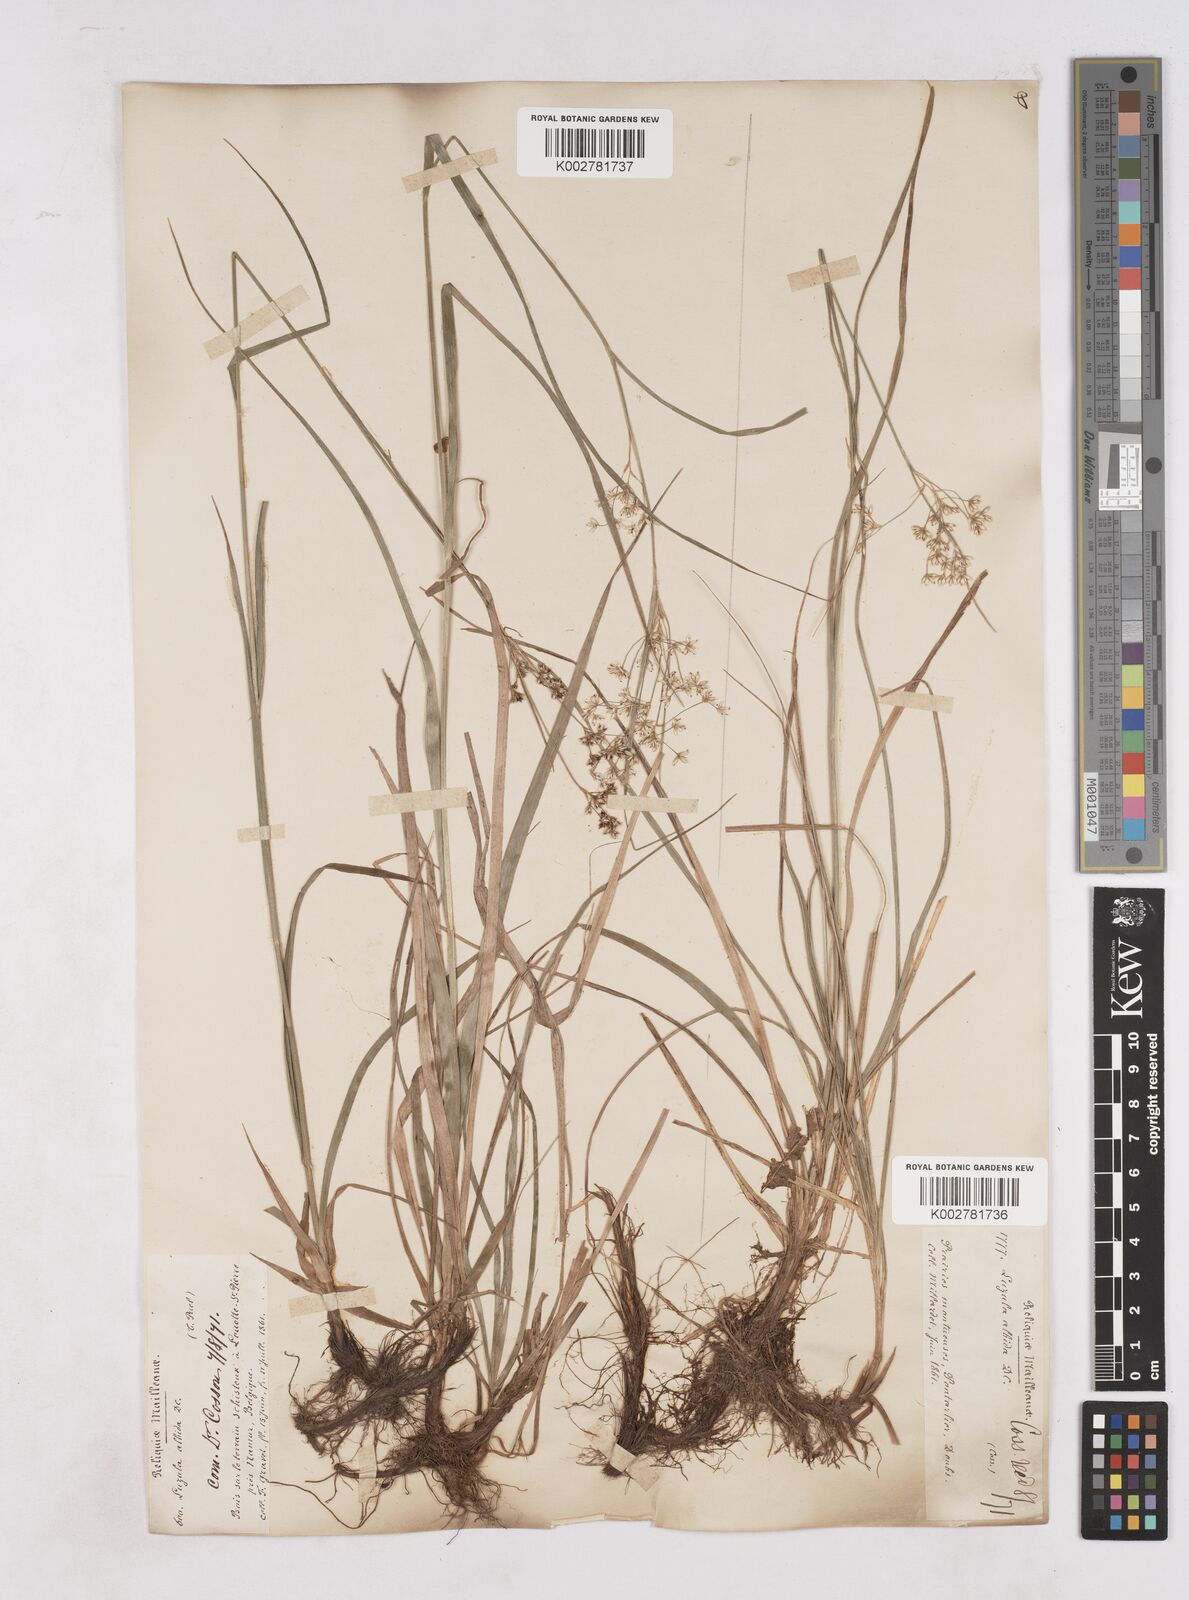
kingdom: Plantae
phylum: Tracheophyta
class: Liliopsida
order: Poales
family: Juncaceae
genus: Luzula
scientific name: Luzula luzuloides
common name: White wood-rush
